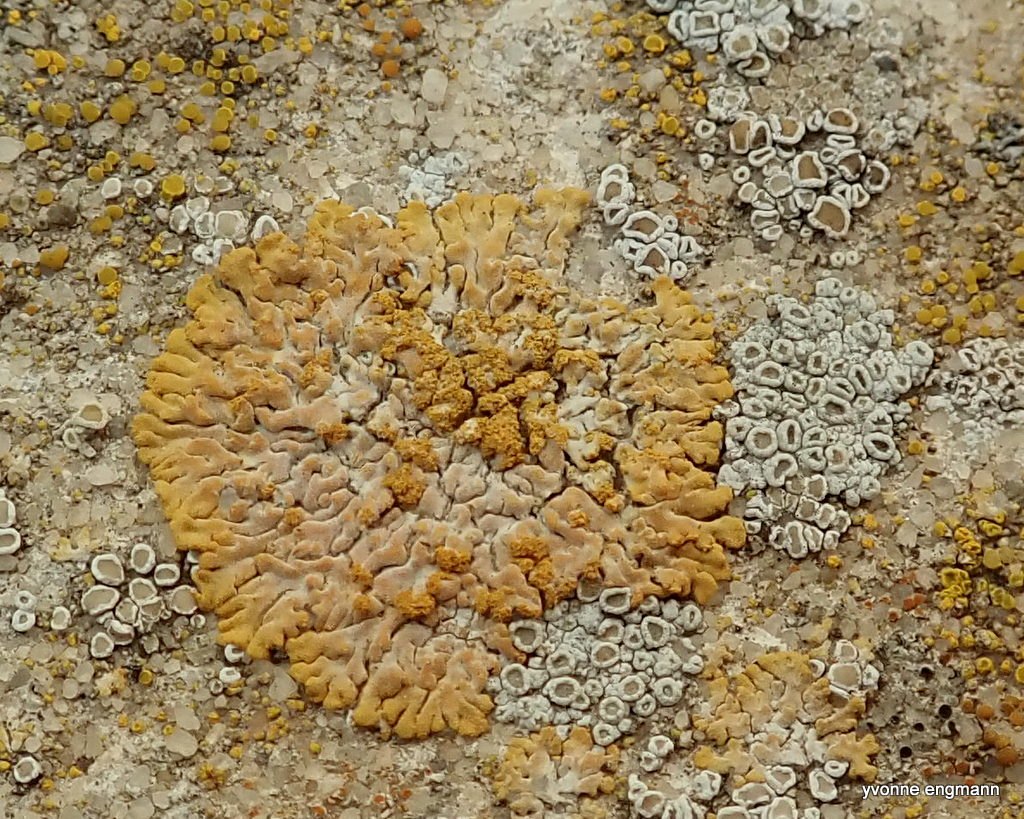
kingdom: Fungi
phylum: Ascomycota
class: Lecanoromycetes
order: Teloschistales
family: Teloschistaceae
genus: Calogaya
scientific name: Calogaya decipiens
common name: knudret orangelav
